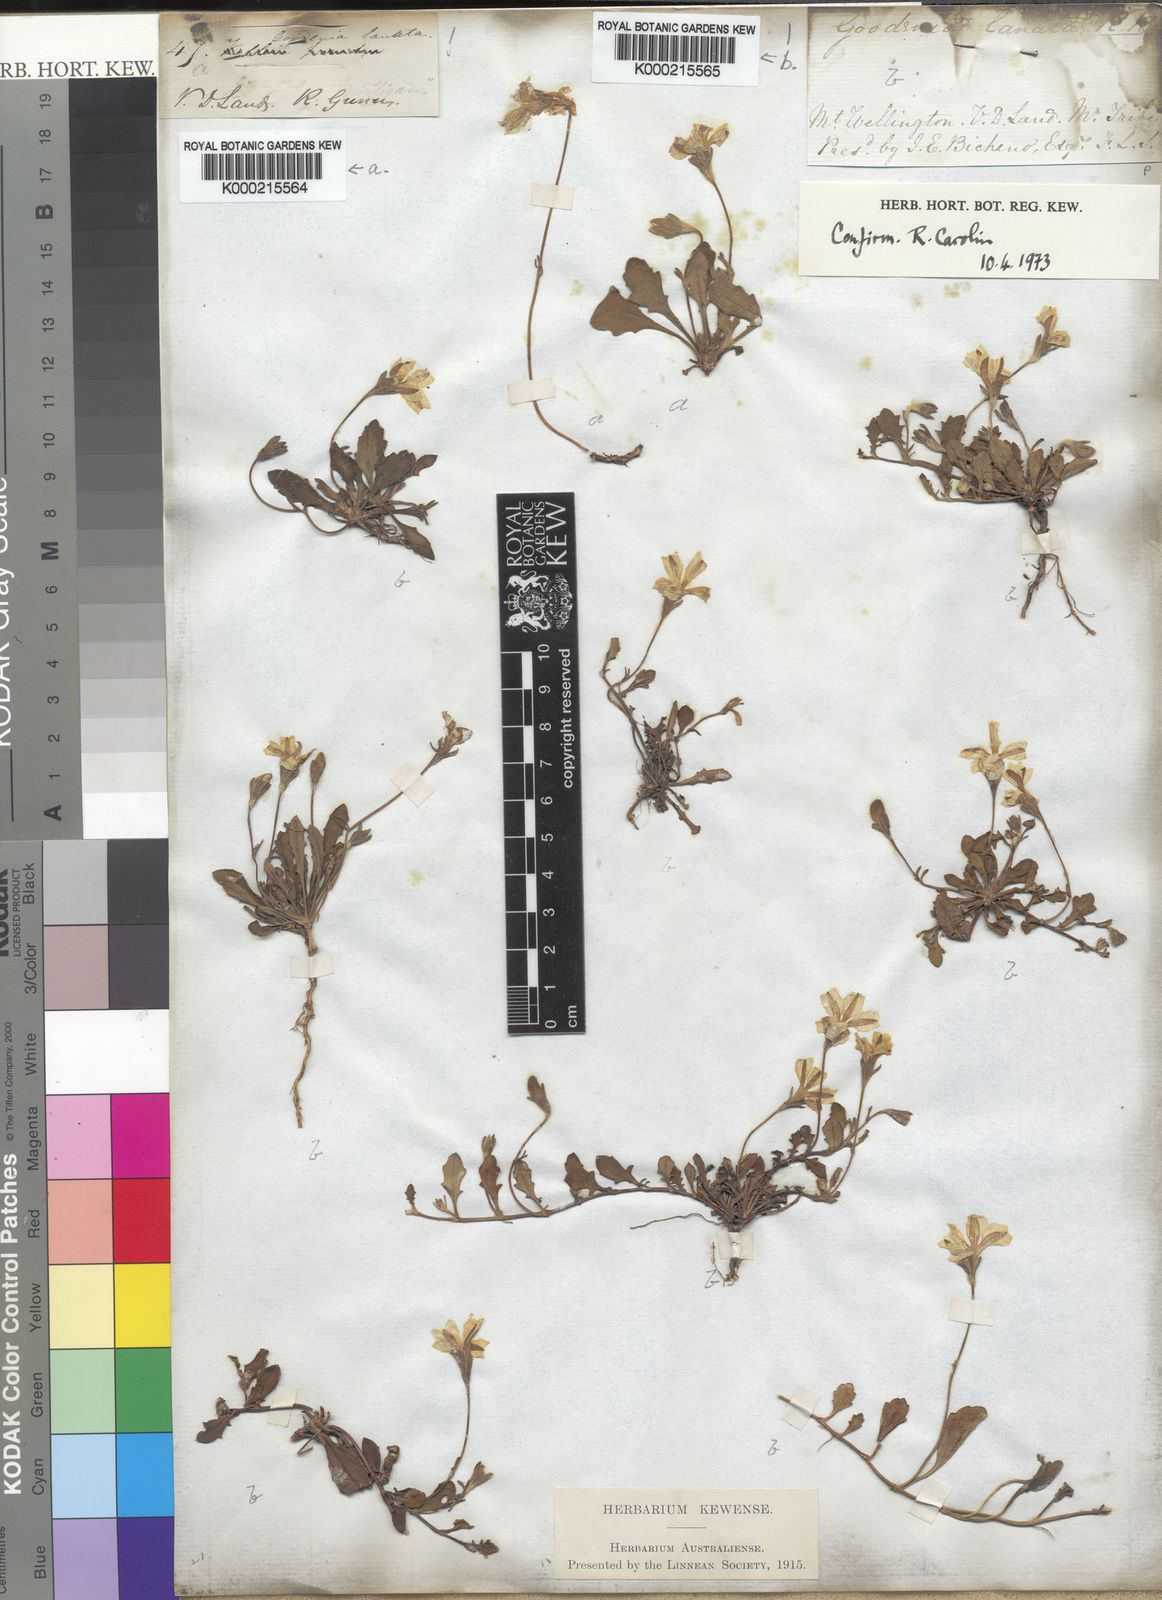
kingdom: Plantae
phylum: Tracheophyta
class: Magnoliopsida
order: Asterales
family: Goodeniaceae
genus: Goodenia
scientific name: Goodenia lanata
